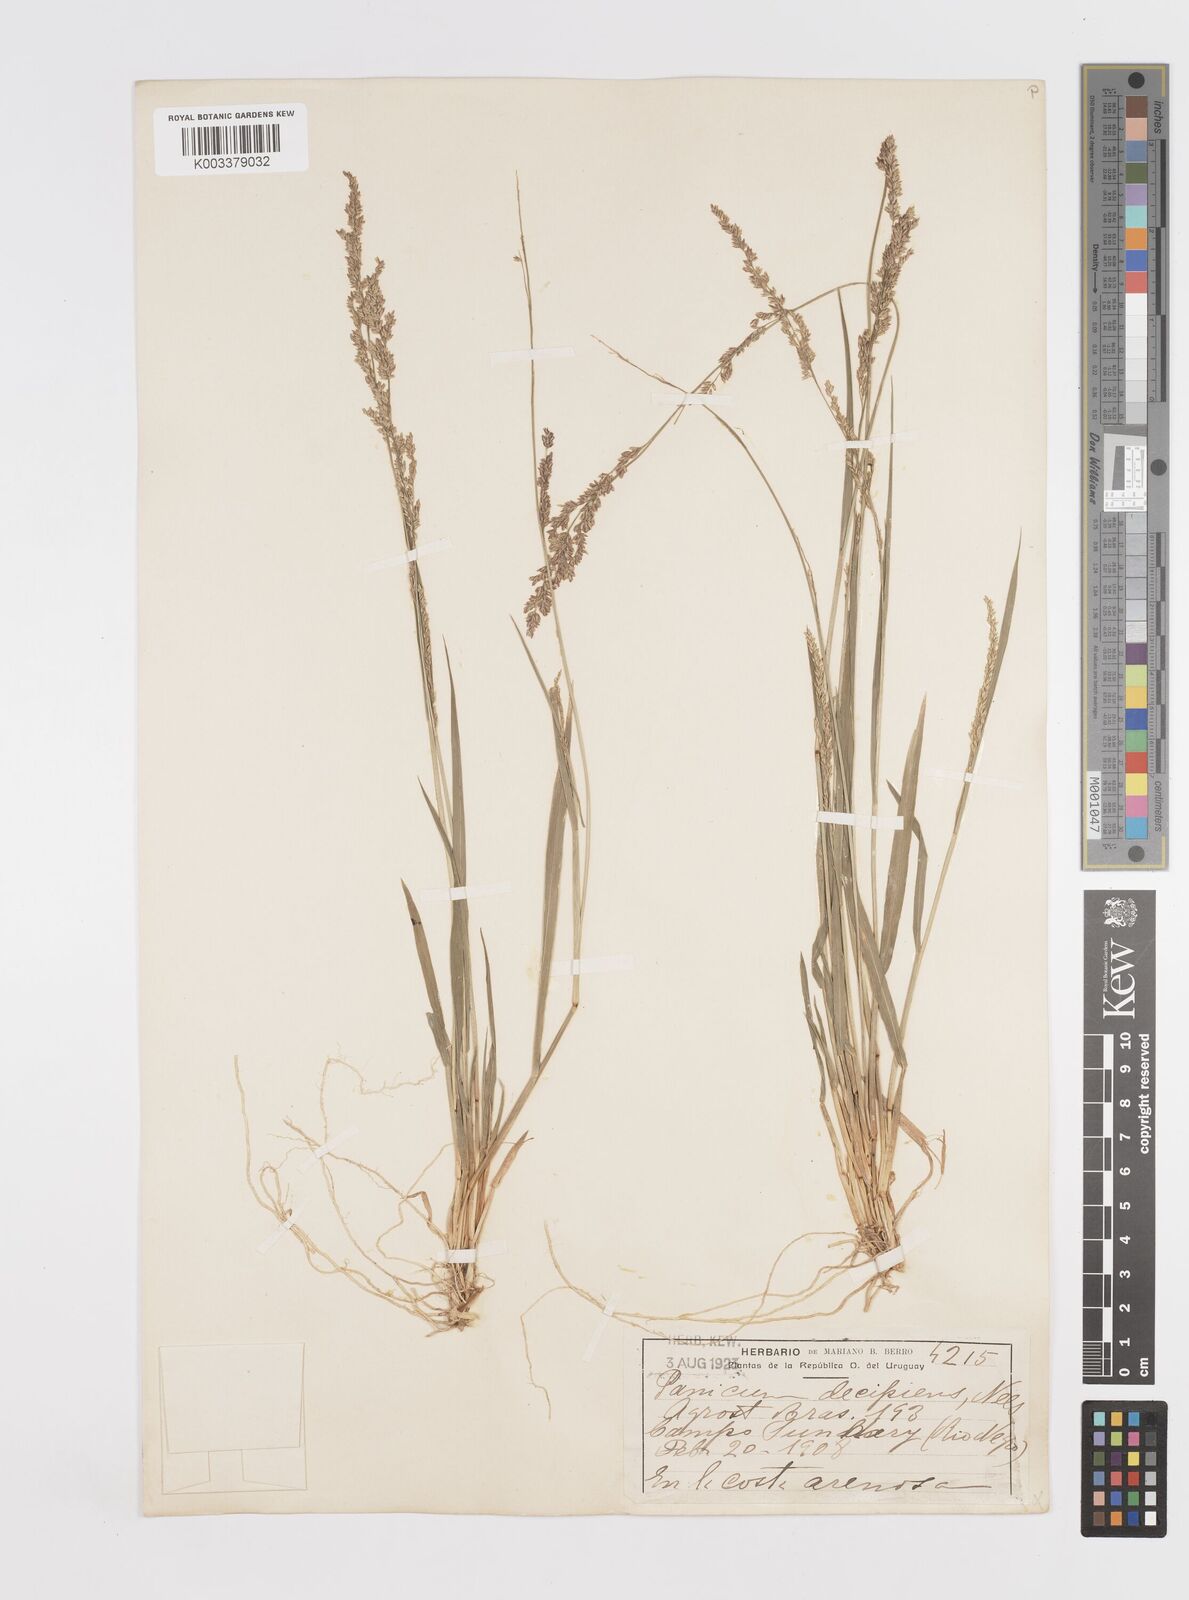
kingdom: Plantae
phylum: Tracheophyta
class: Liliopsida
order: Poales
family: Poaceae
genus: Steinchisma
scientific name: Steinchisma decipiens
